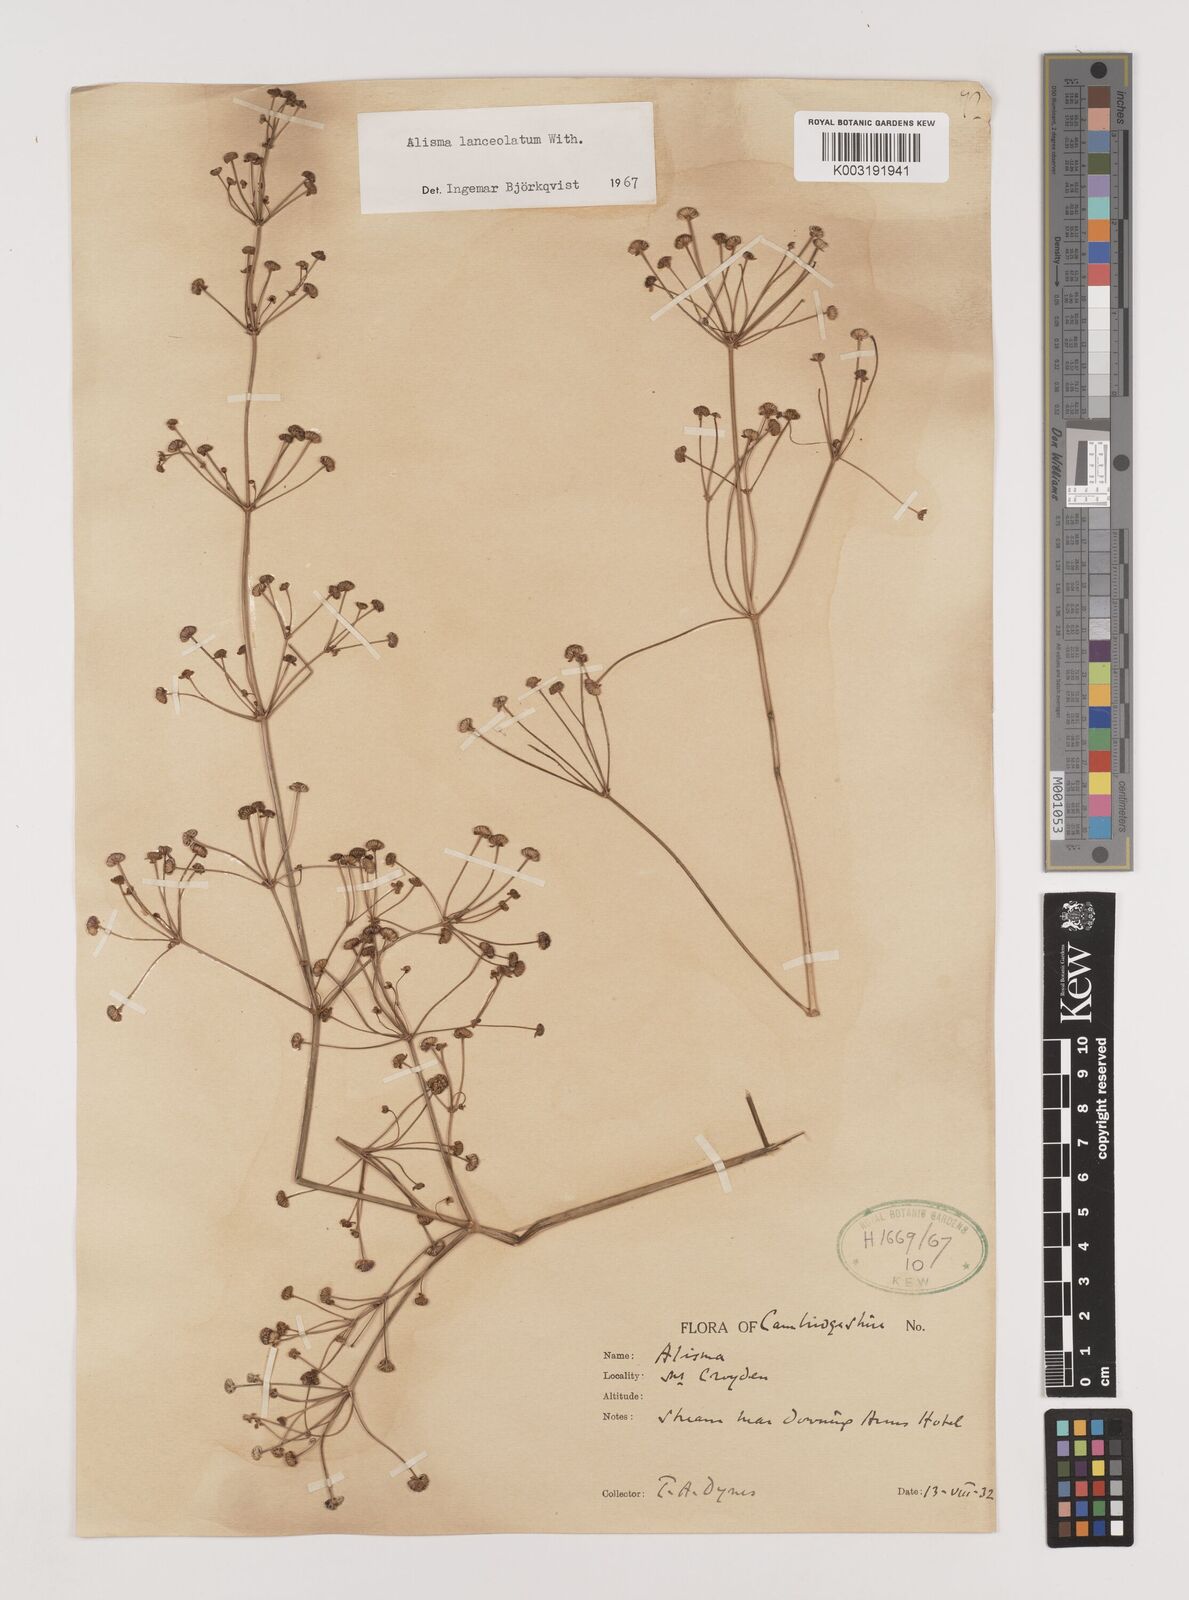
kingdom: Plantae
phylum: Tracheophyta
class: Liliopsida
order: Alismatales
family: Alismataceae
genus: Alisma
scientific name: Alisma lanceolatum
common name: Narrow-leaved water-plantain
